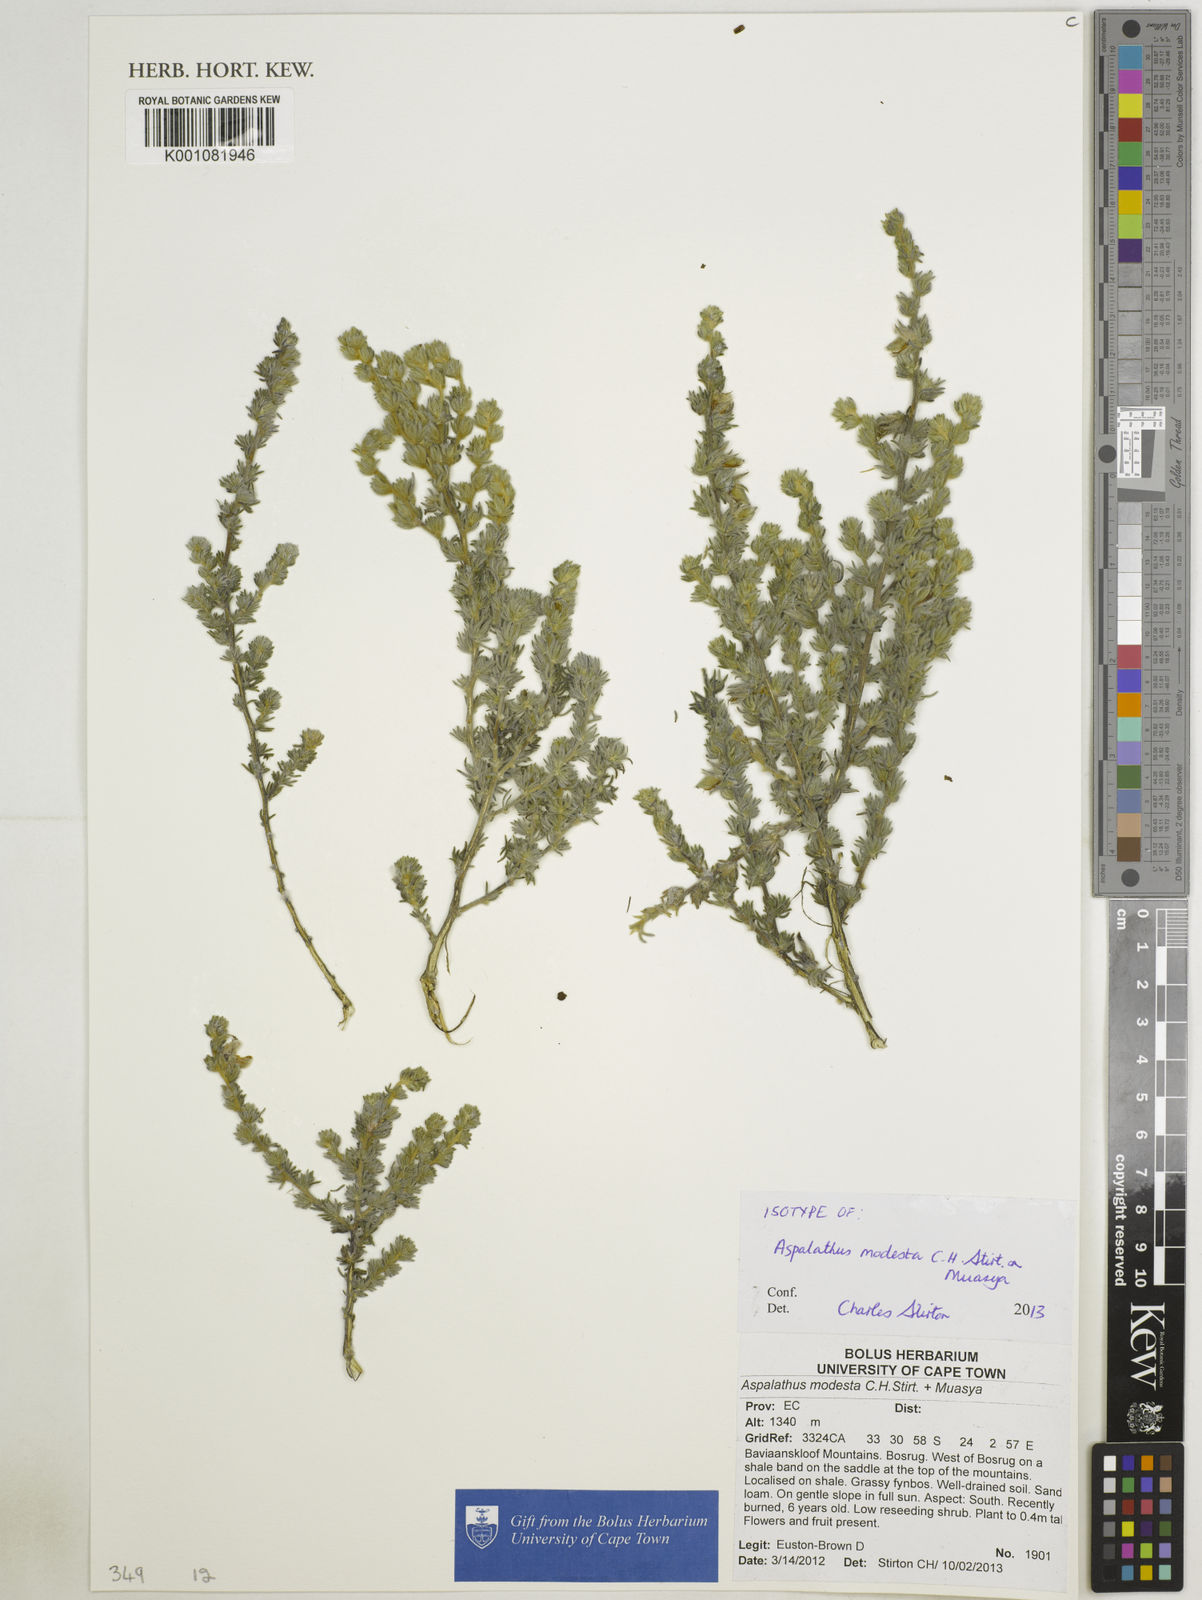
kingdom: Plantae
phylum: Tracheophyta
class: Magnoliopsida
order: Fabales
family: Fabaceae
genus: Aspalathus
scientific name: Aspalathus modesta
